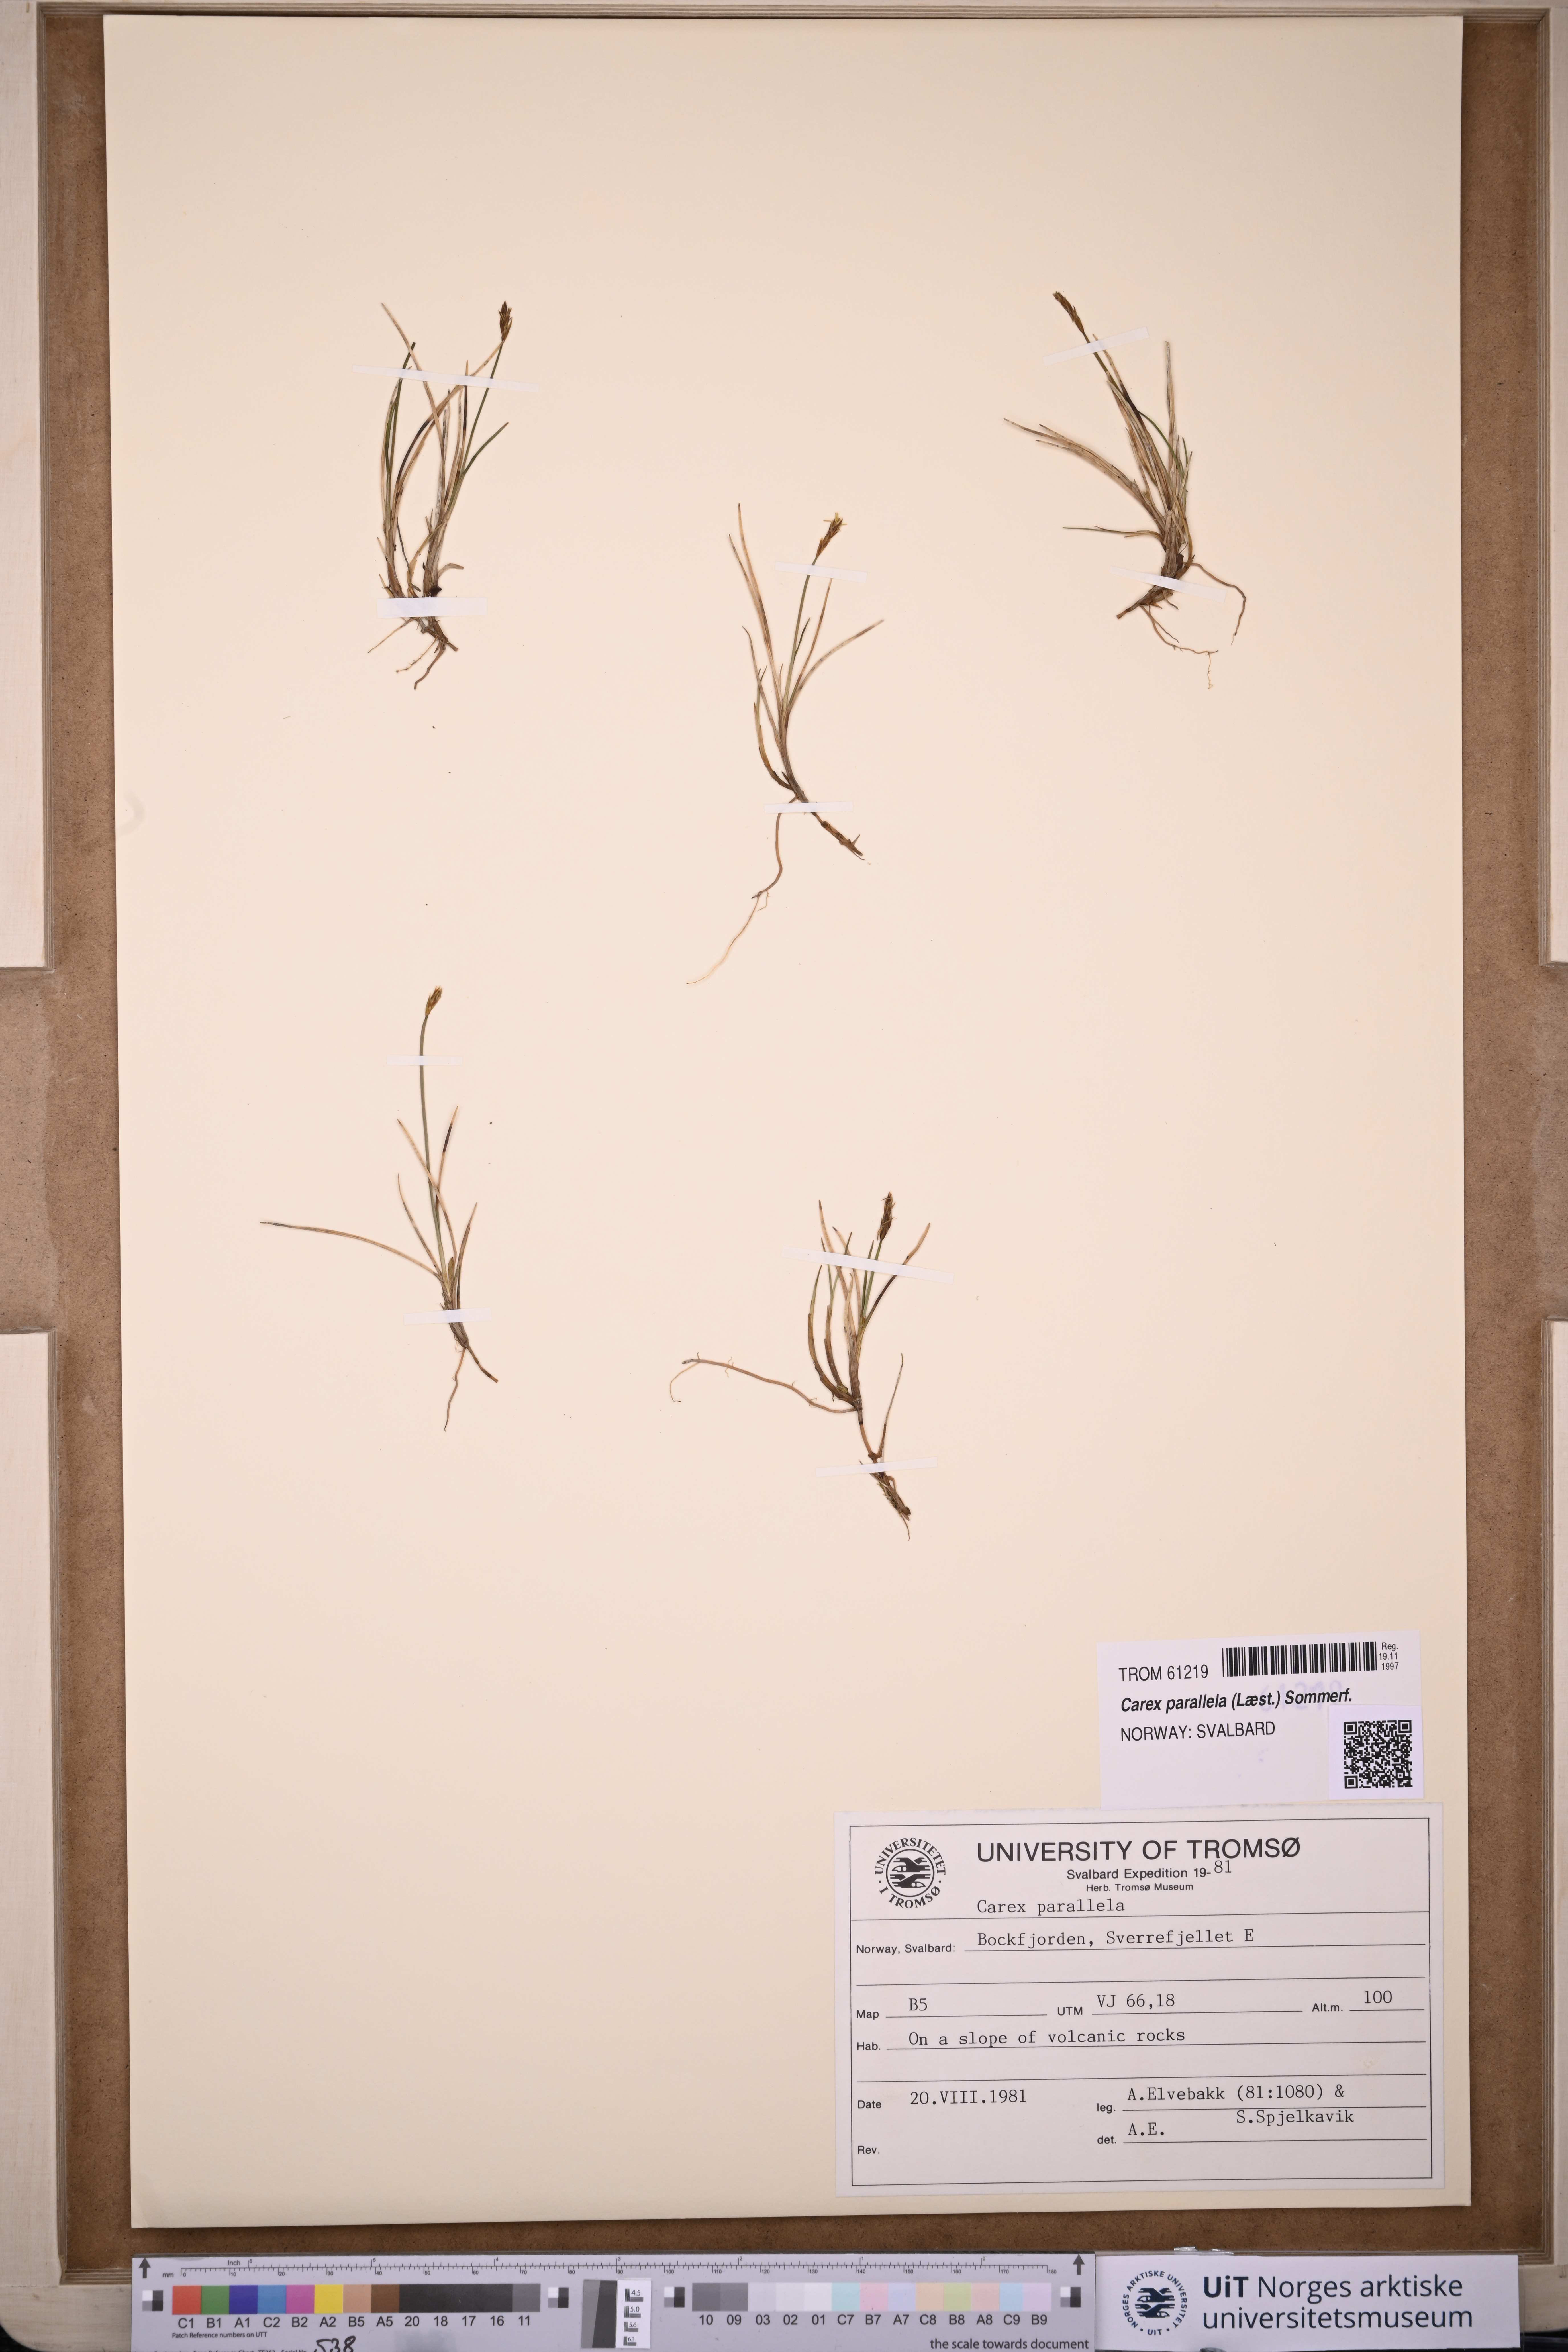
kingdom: Plantae
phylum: Tracheophyta
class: Liliopsida
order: Poales
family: Cyperaceae
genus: Carex
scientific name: Carex parallela
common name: Parallel sedge
